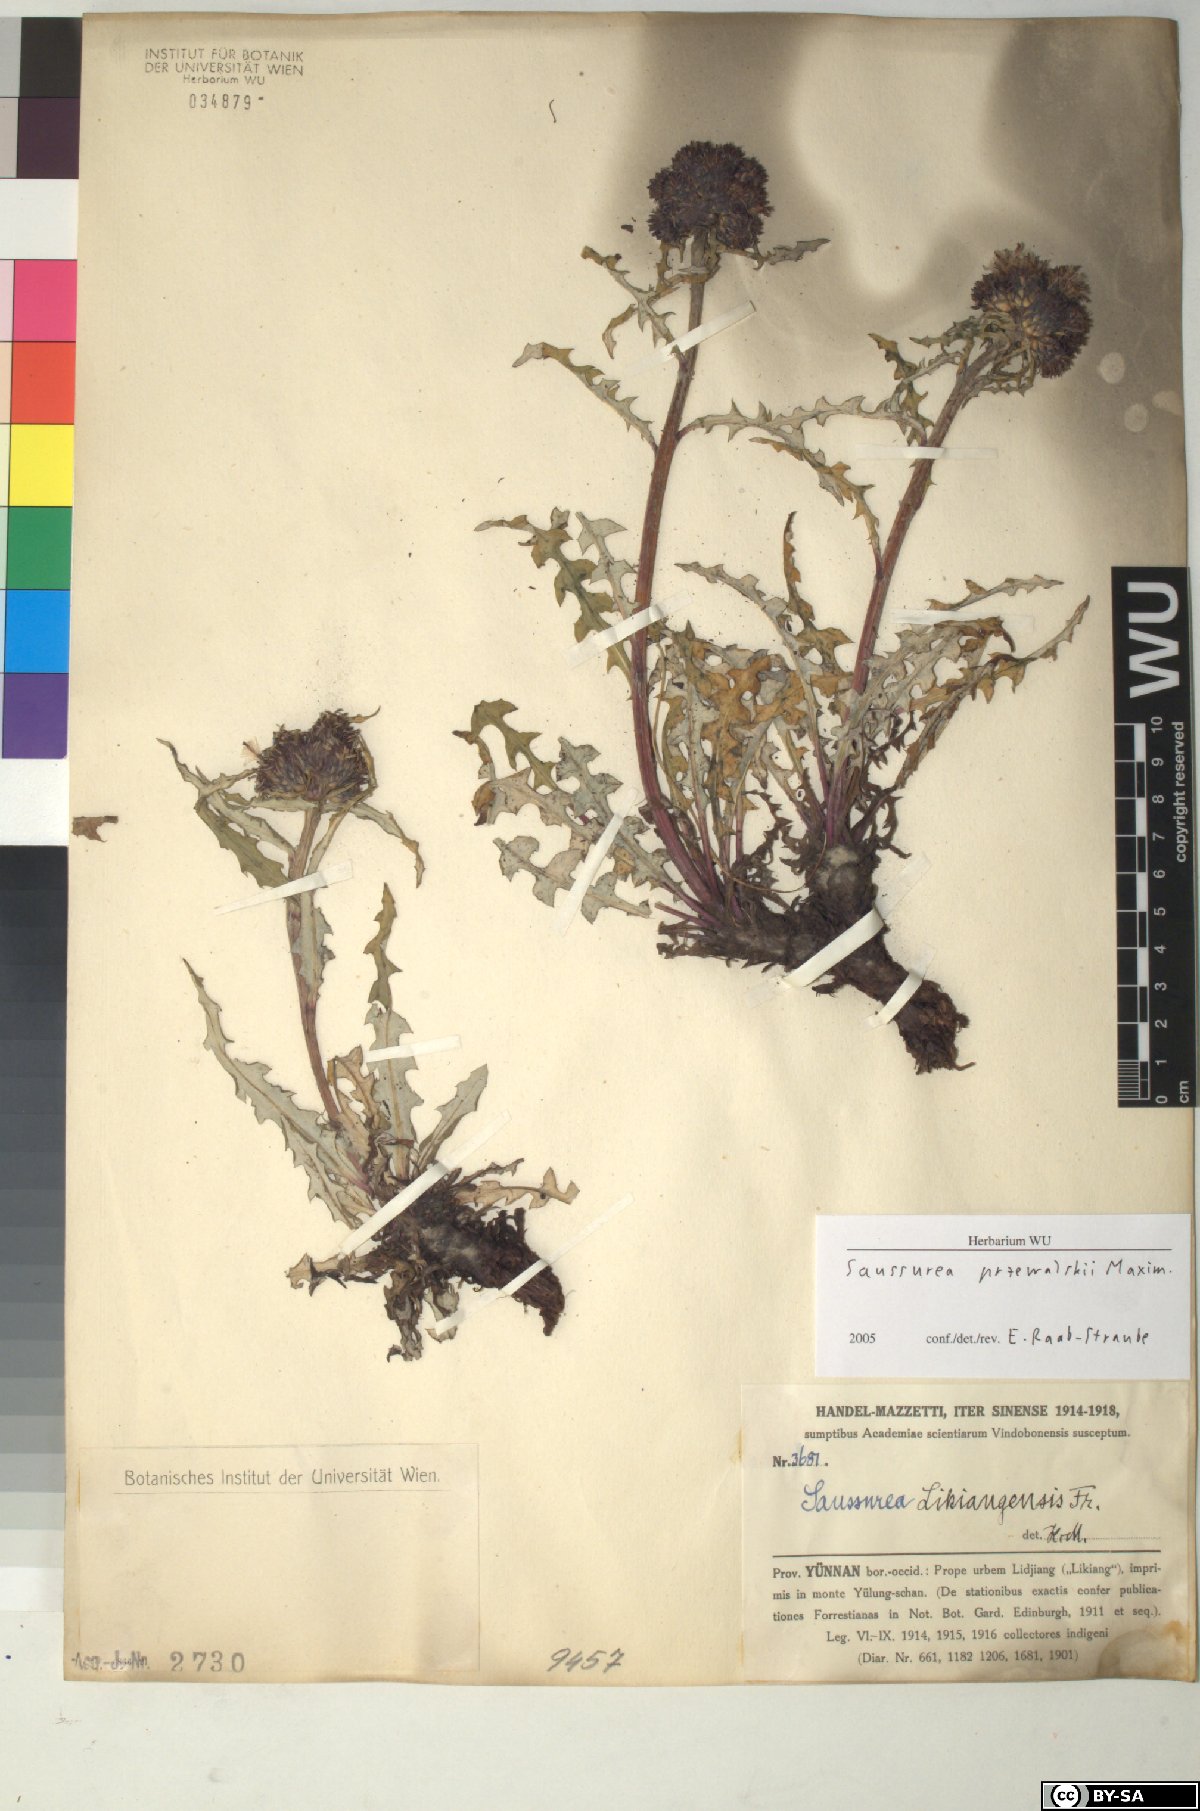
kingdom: Plantae
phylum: Tracheophyta
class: Magnoliopsida
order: Asterales
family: Asteraceae
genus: Saussurea
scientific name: Saussurea przewalskii
